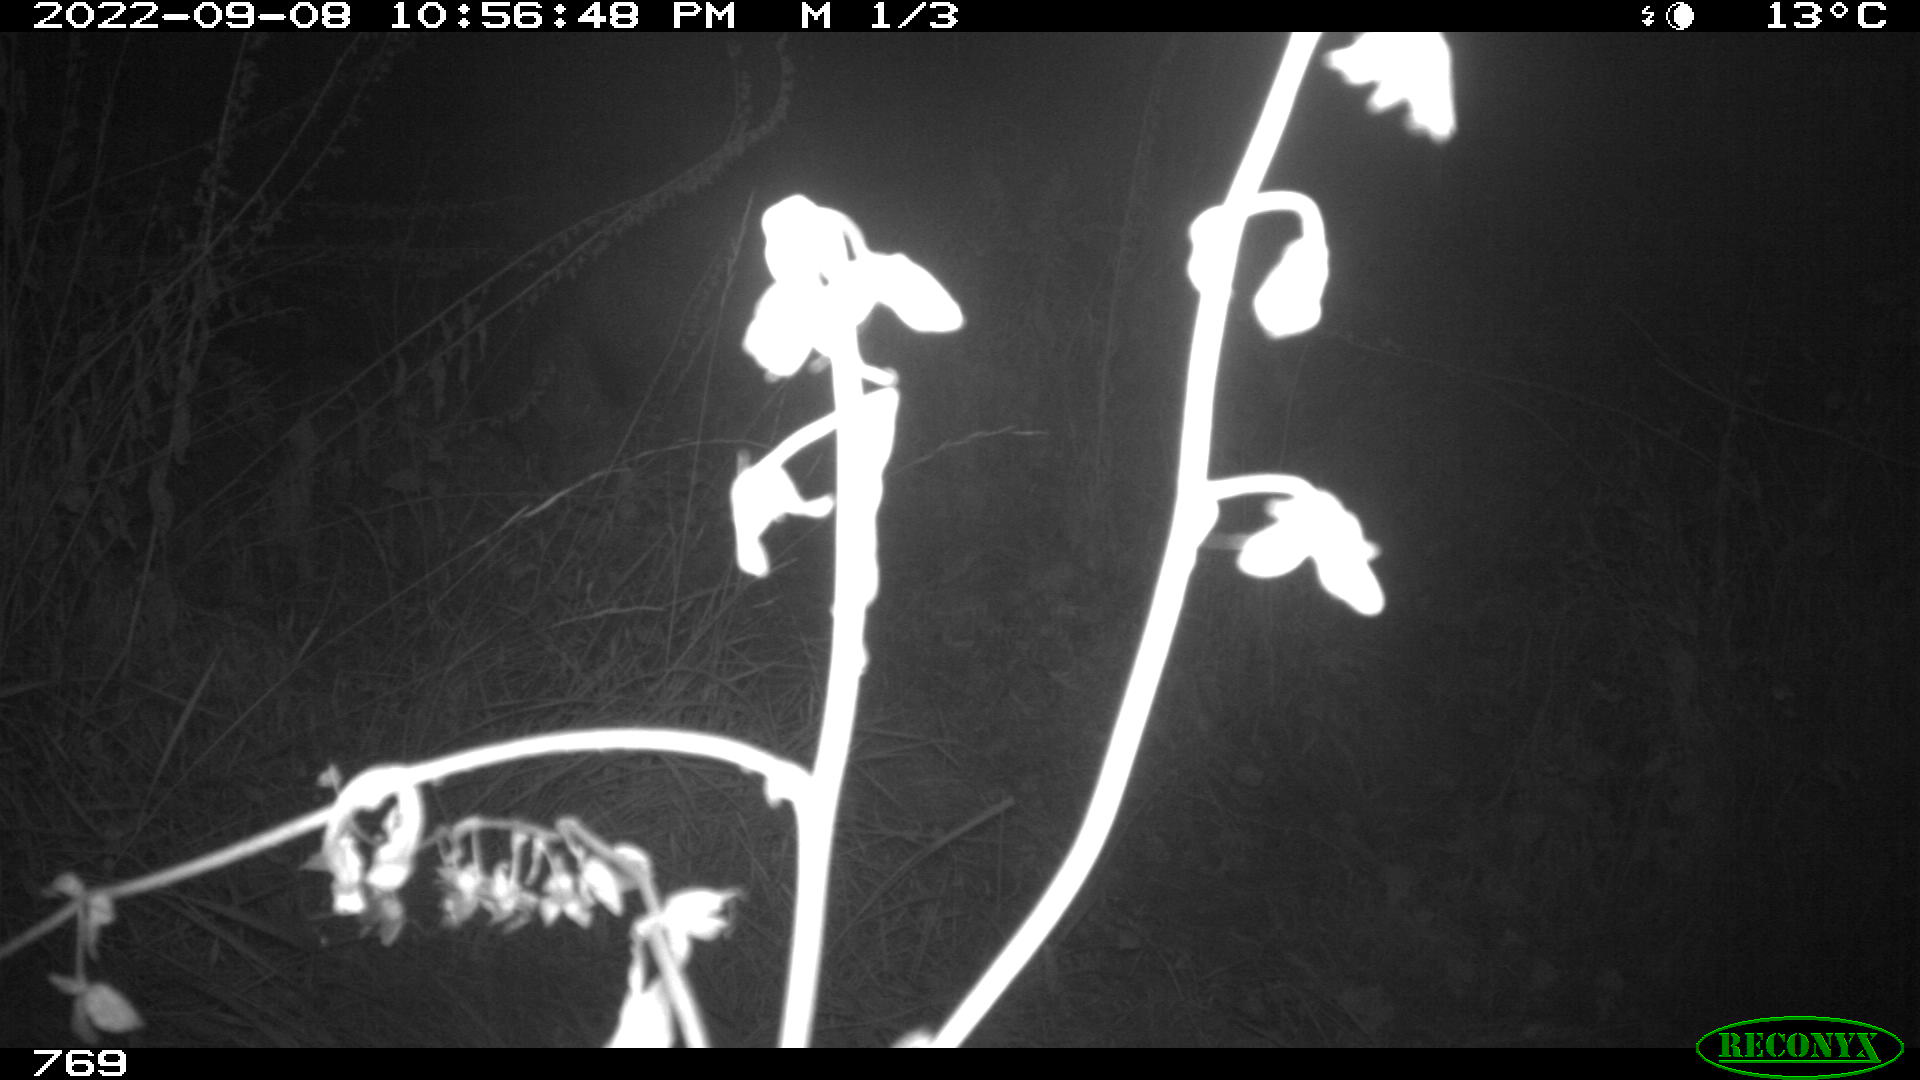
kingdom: Animalia
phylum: Chordata
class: Mammalia
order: Artiodactyla
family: Suidae
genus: Sus
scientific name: Sus scrofa
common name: Wild boar
